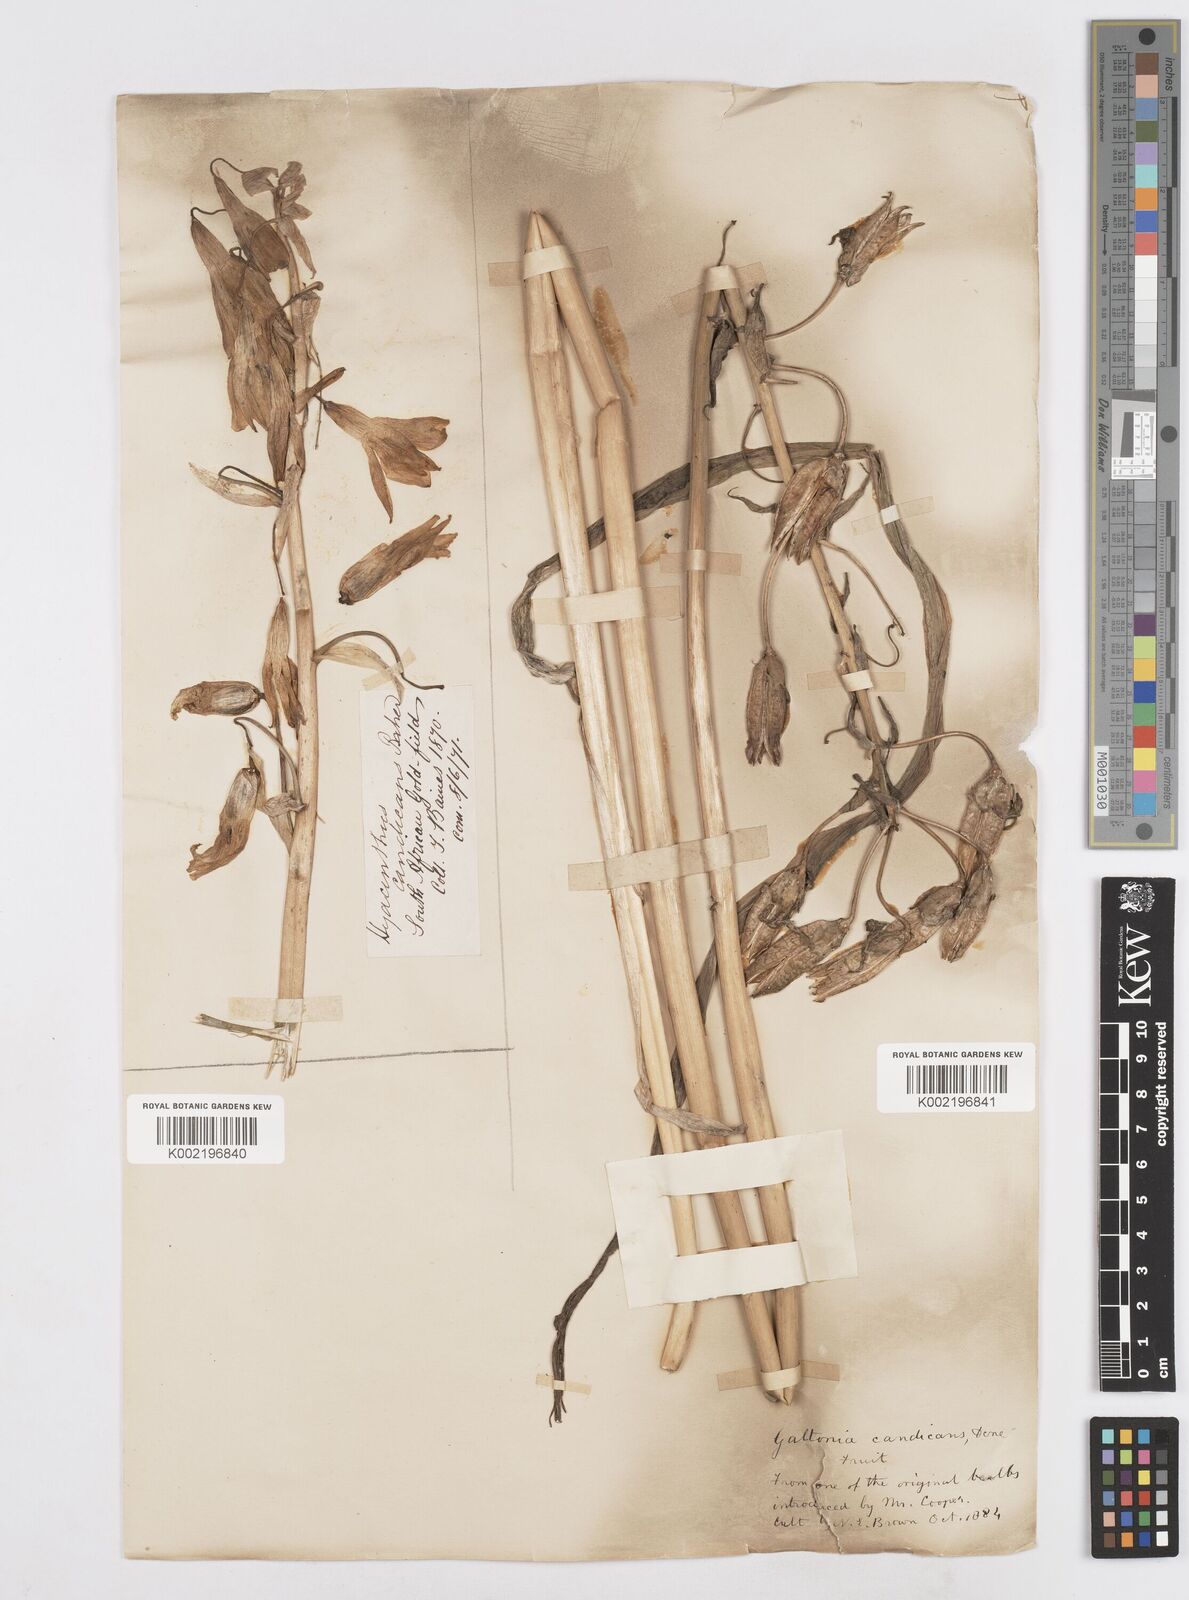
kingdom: Plantae
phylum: Tracheophyta
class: Liliopsida
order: Asparagales
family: Asparagaceae
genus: Ornithogalum
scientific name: Ornithogalum candicans
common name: Summer-hyacinth
